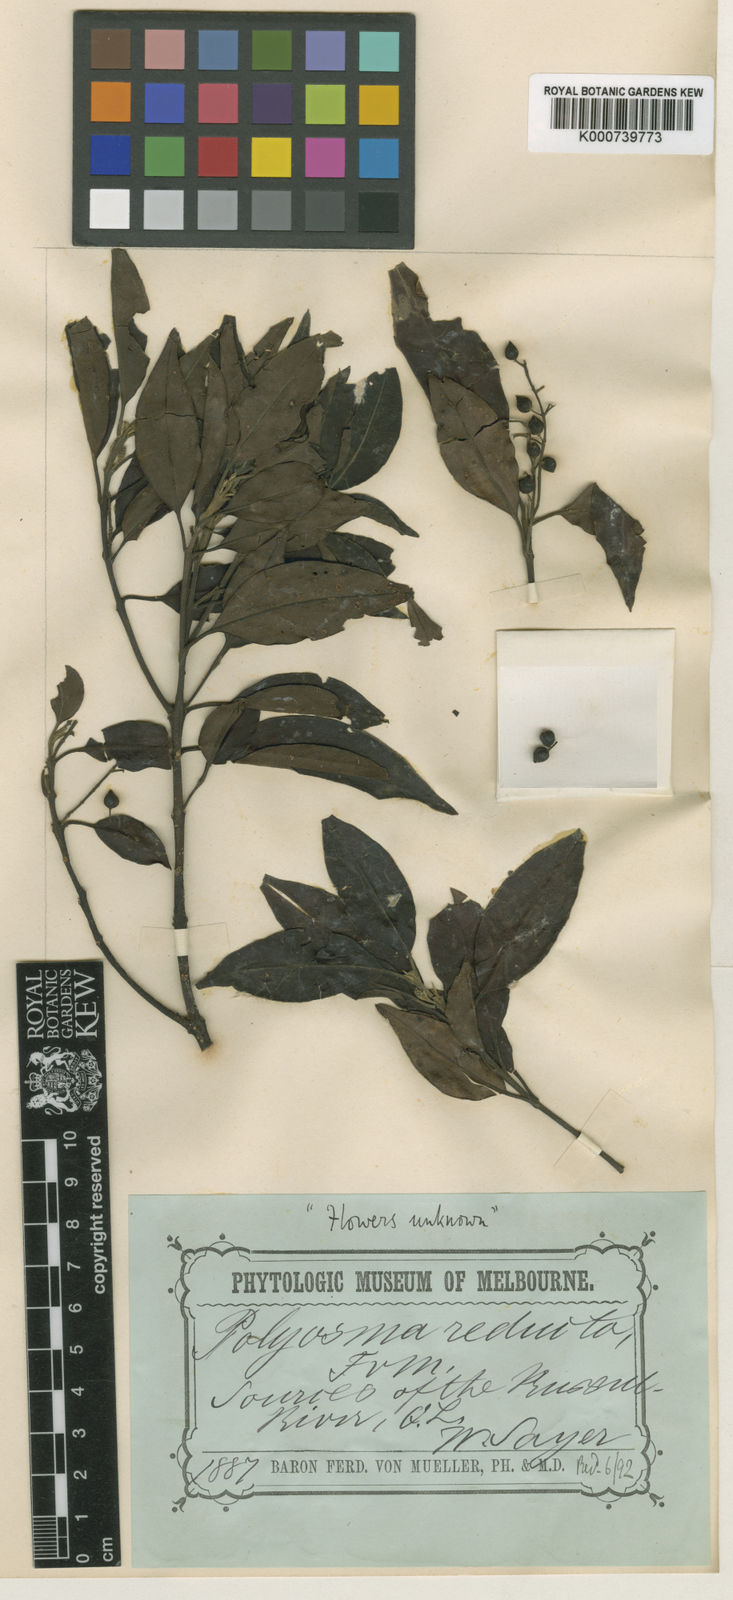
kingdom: Plantae
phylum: Tracheophyta
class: Magnoliopsida
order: Escalloniales
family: Escalloniaceae
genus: Polyosma
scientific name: Polyosma reducta
